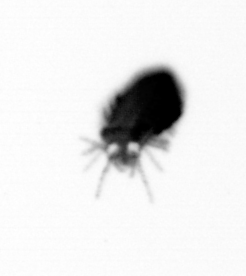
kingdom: Animalia
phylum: Annelida
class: Polychaeta
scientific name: Polychaeta
